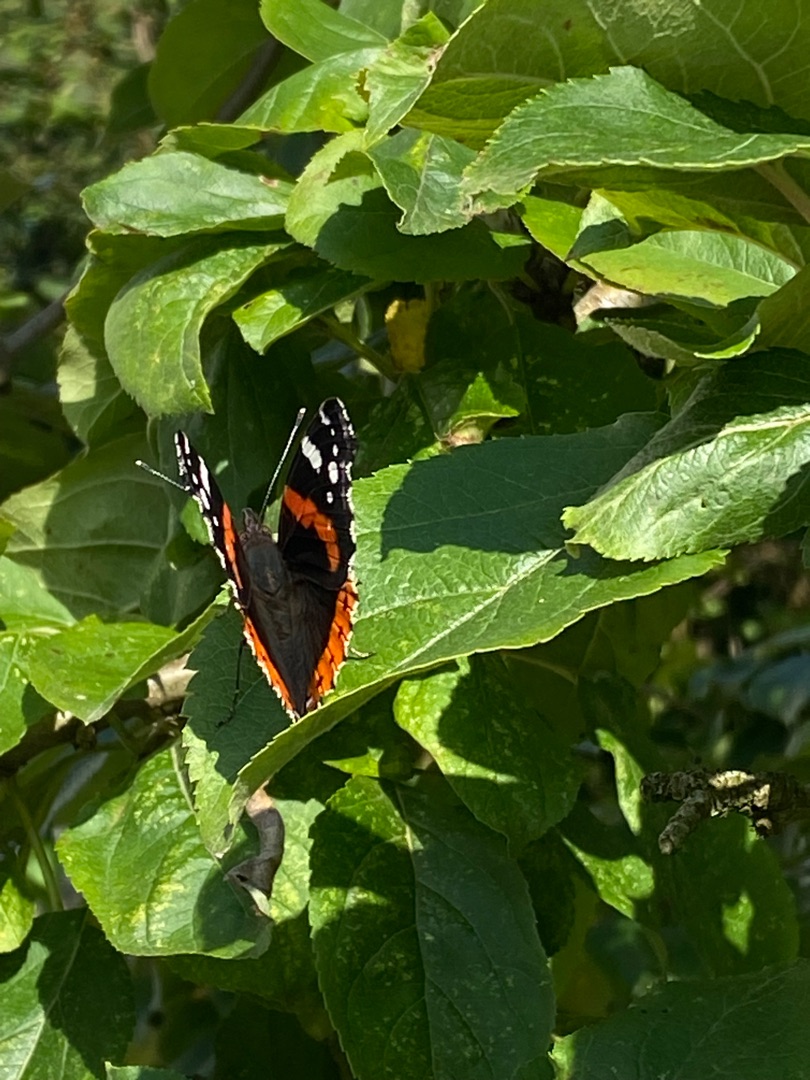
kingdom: Animalia
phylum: Arthropoda
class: Insecta
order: Lepidoptera
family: Nymphalidae
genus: Vanessa
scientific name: Vanessa atalanta
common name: Admiral
